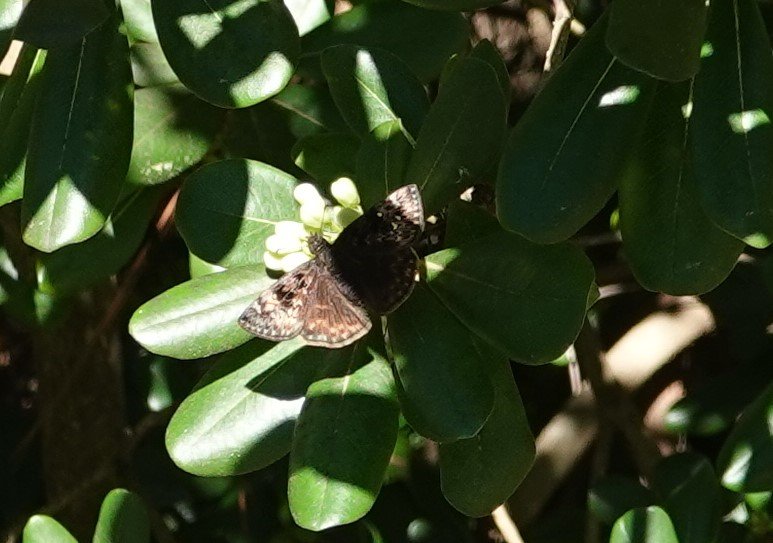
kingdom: Animalia
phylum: Arthropoda
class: Insecta
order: Lepidoptera
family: Hesperiidae
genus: Gesta
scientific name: Gesta
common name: Horace's Duskywing
